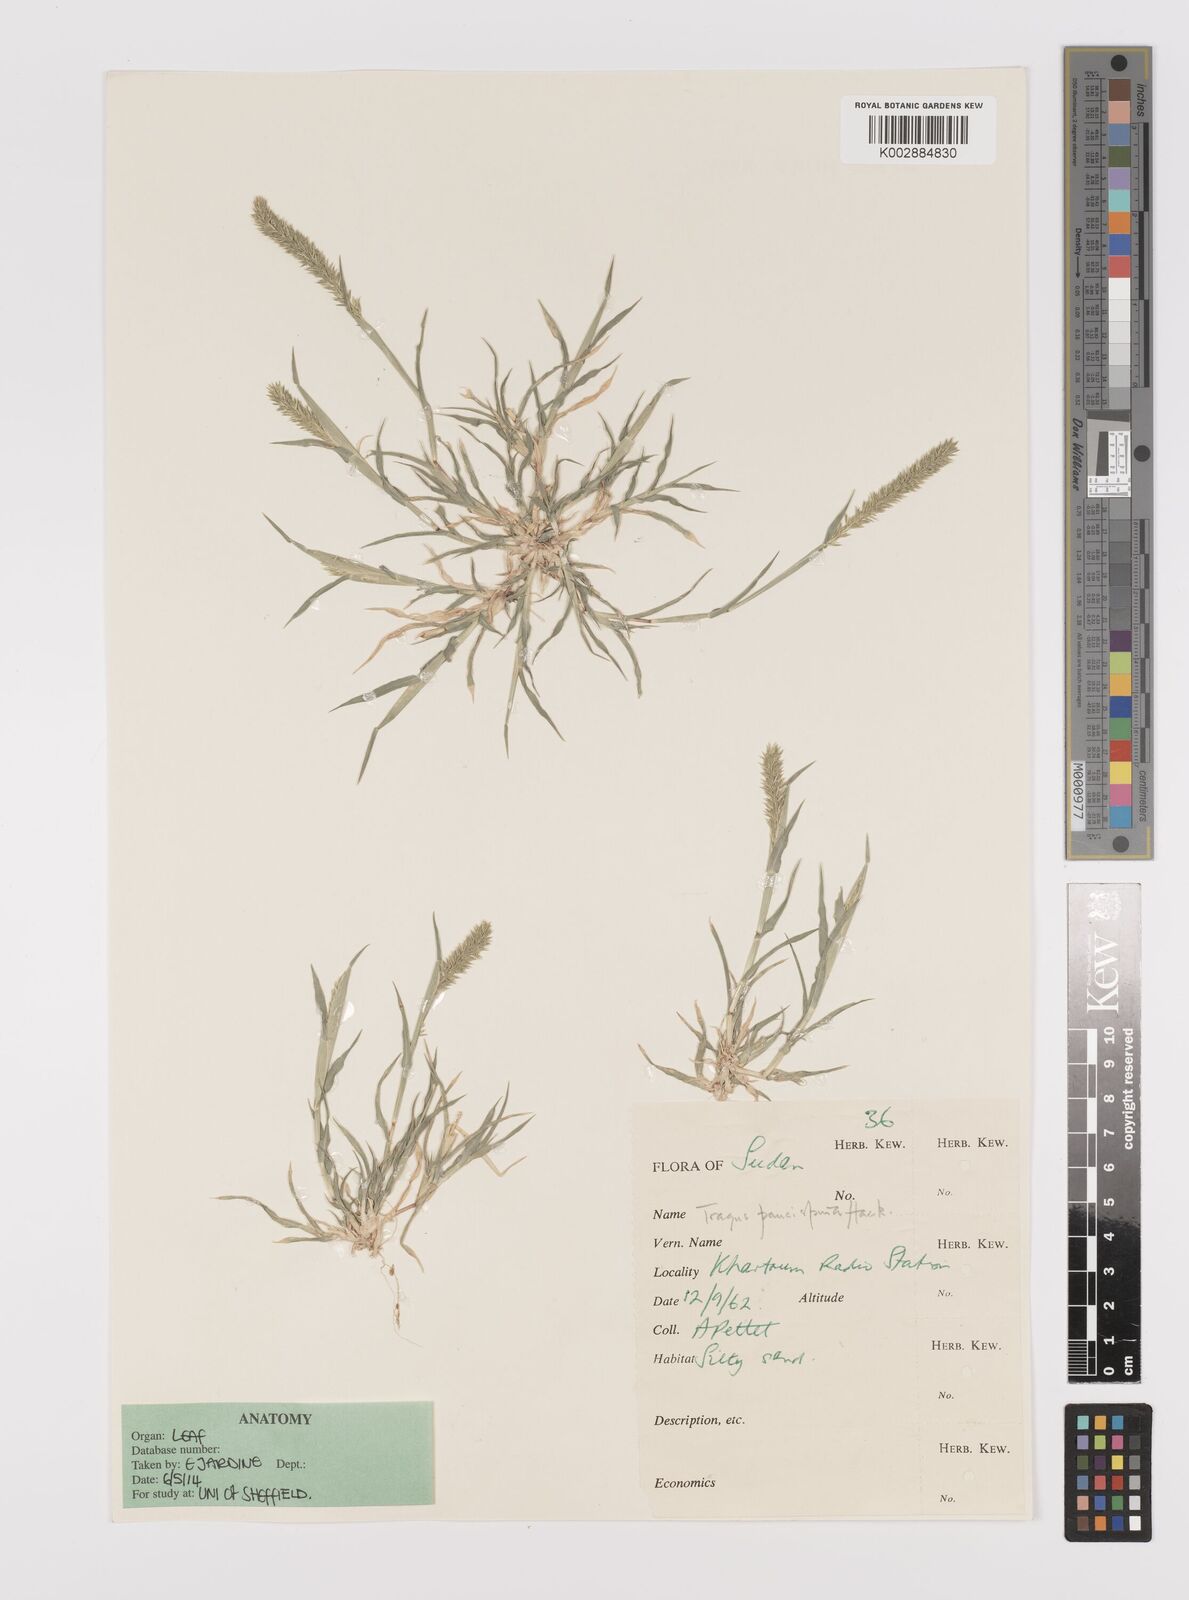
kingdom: Plantae
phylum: Tracheophyta
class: Liliopsida
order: Poales
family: Poaceae
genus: Tragus
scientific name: Tragus racemosus
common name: European bur-grass
